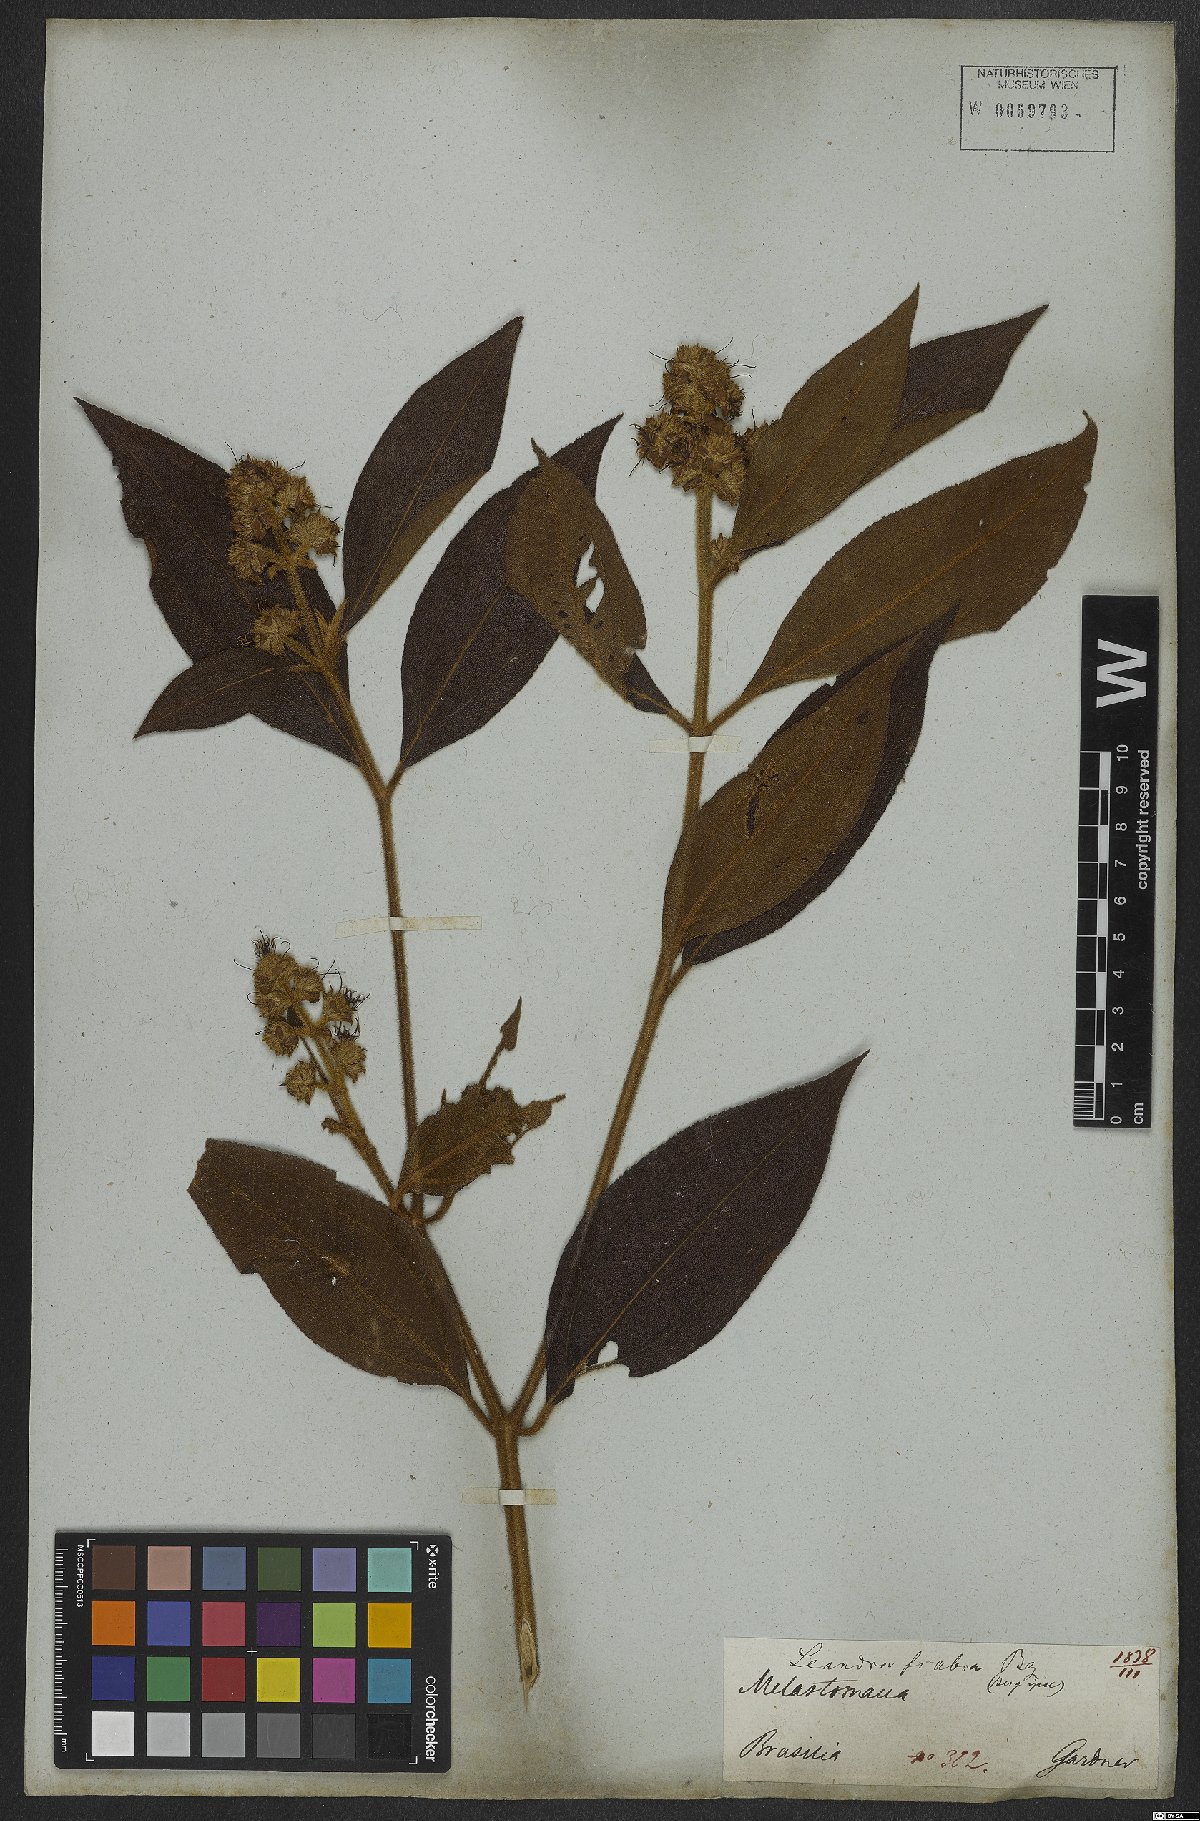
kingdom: Plantae
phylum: Tracheophyta
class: Magnoliopsida
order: Myrtales
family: Melastomataceae
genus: Miconia
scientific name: Miconia melastomoides
